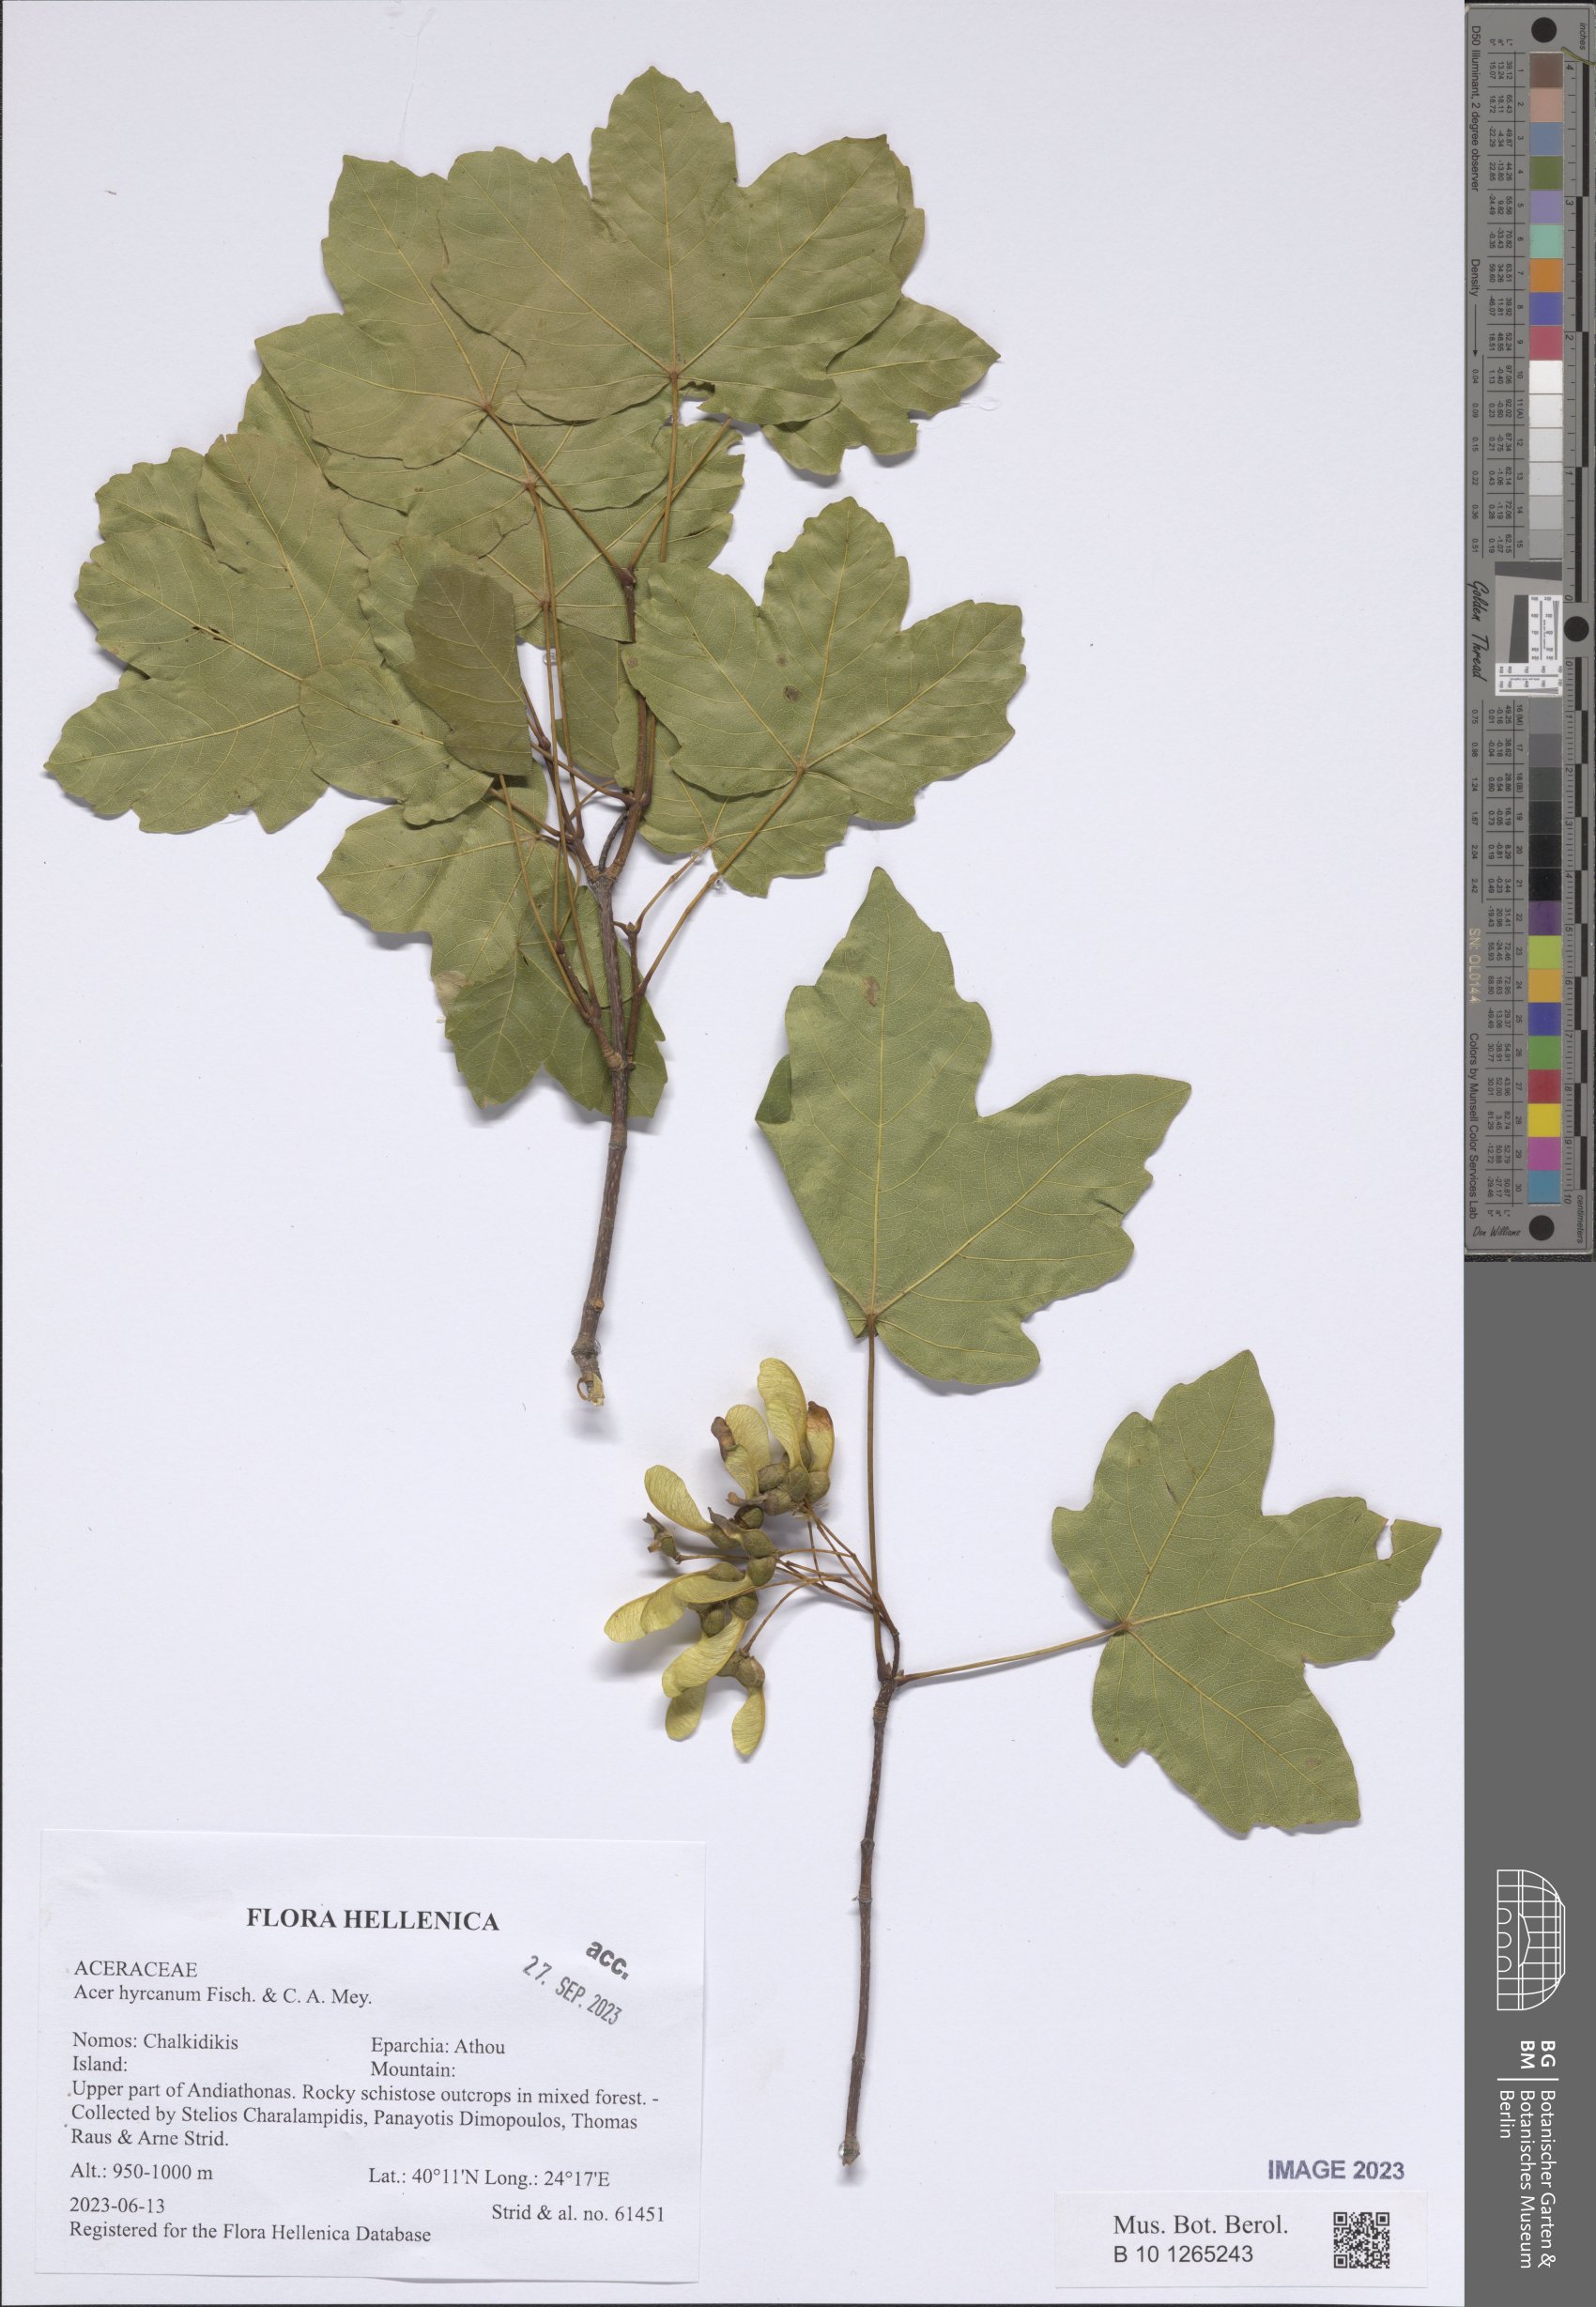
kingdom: Plantae
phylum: Tracheophyta
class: Magnoliopsida
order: Sapindales
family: Sapindaceae
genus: Acer
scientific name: Acer hyrcanum
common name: Balkan maple
